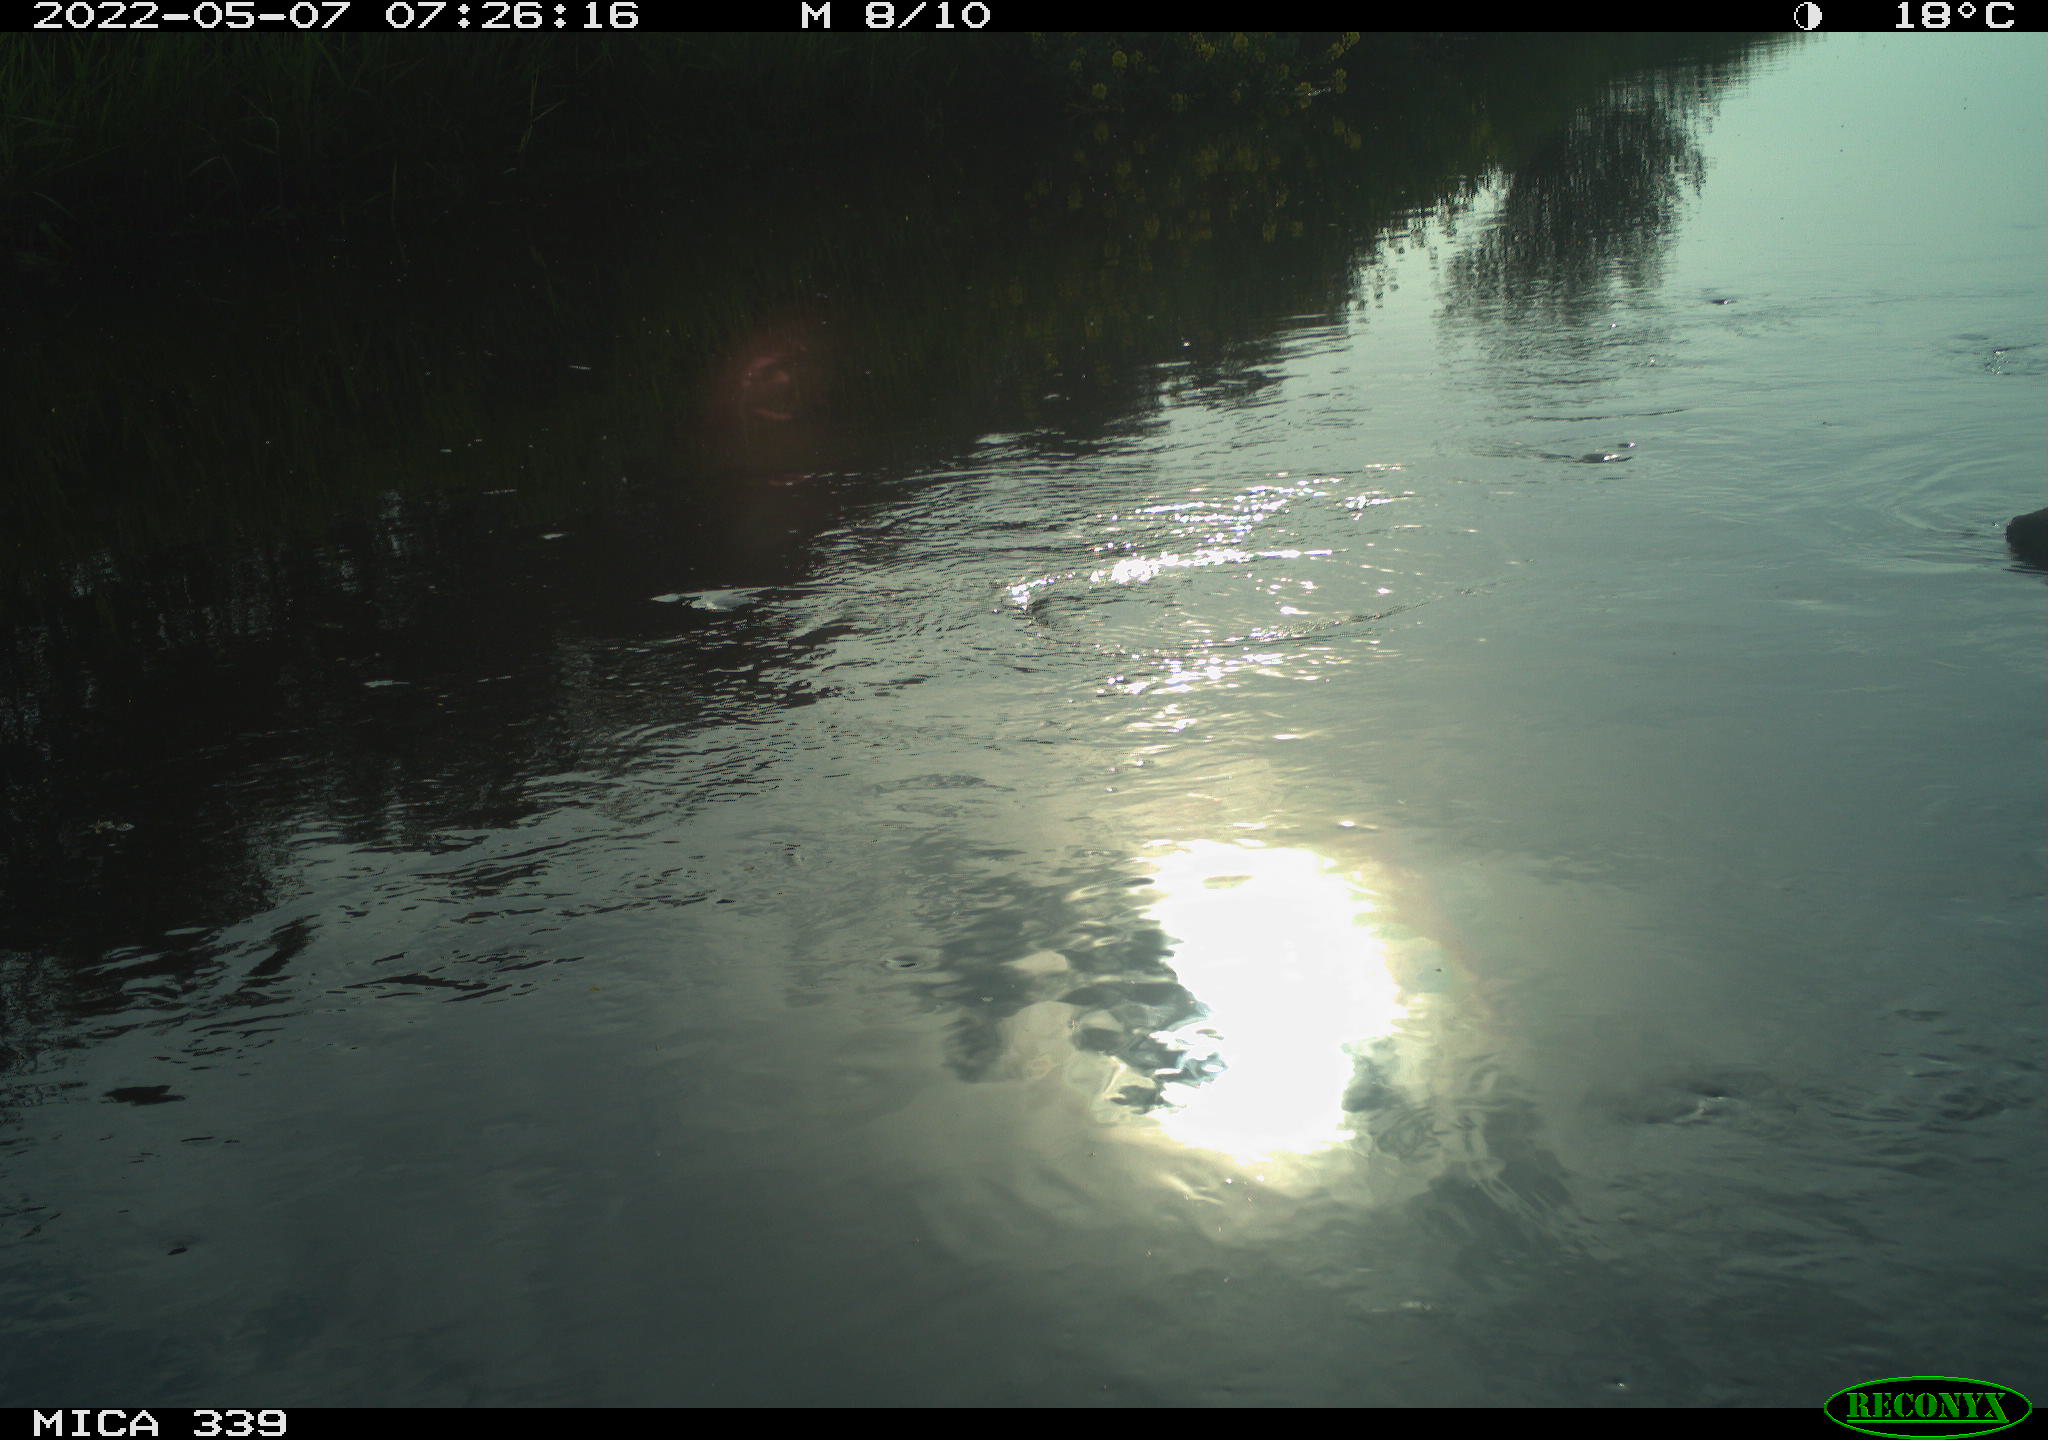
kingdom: Animalia
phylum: Chordata
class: Aves
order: Gruiformes
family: Rallidae
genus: Fulica
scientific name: Fulica atra
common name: Eurasian coot
